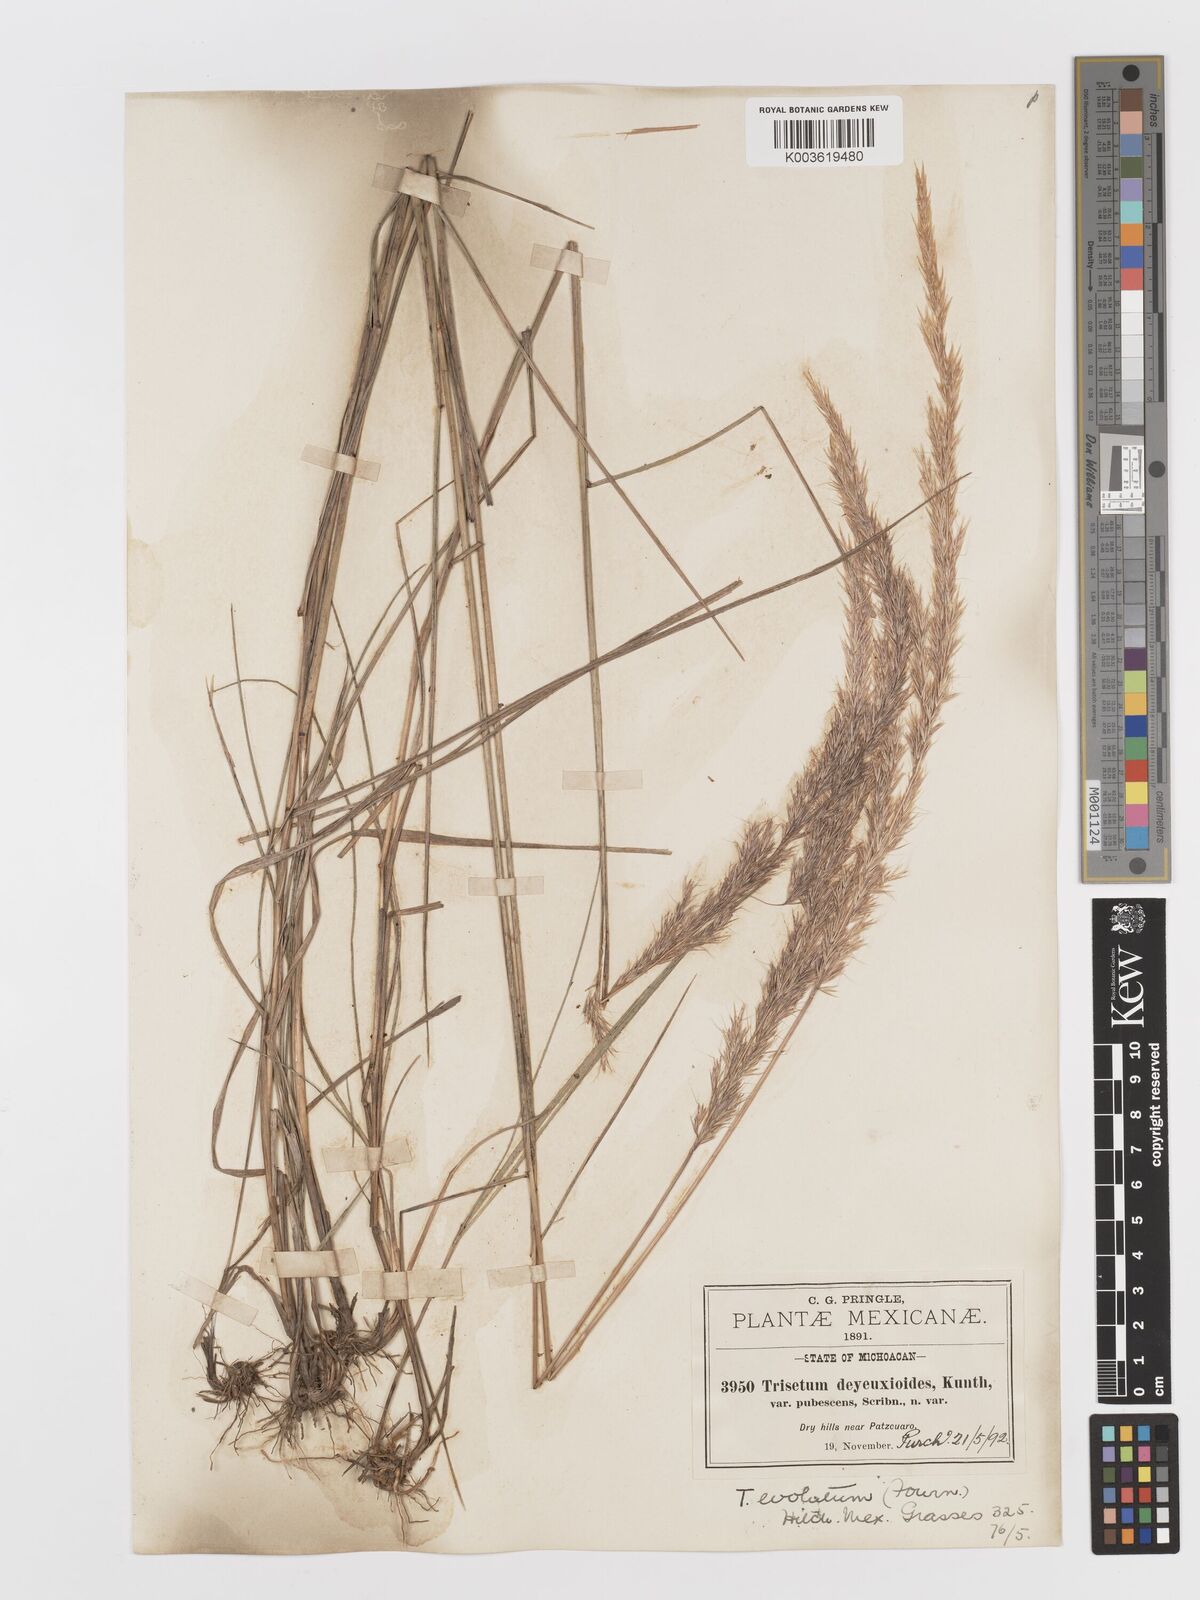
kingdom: Plantae
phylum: Tracheophyta
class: Liliopsida
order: Poales
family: Poaceae
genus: Peyritschia
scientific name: Peyritschia deyeuxioides
